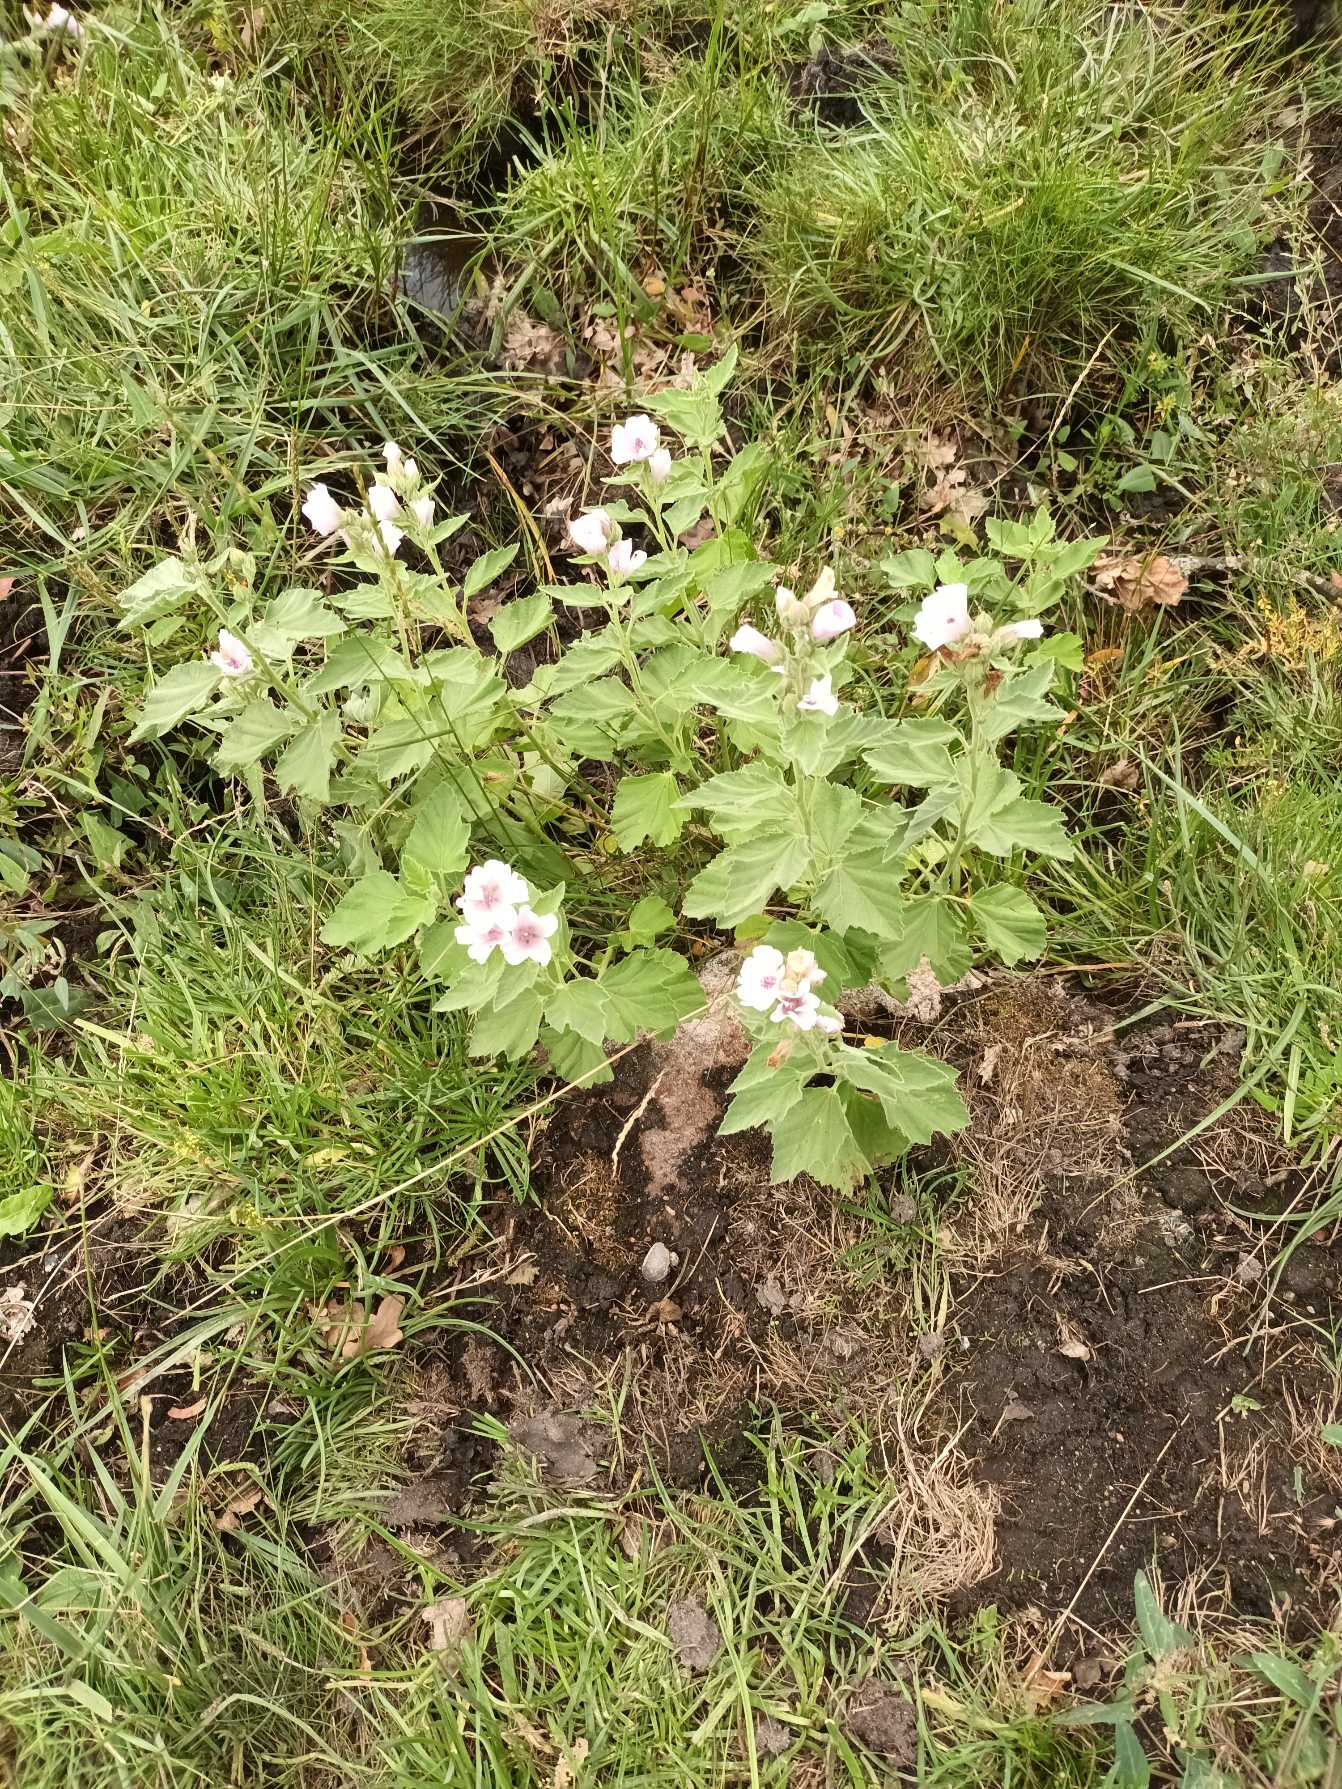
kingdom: Plantae
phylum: Tracheophyta
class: Magnoliopsida
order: Malvales
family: Malvaceae
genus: Althaea
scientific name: Althaea officinalis
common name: Lægestokrose
